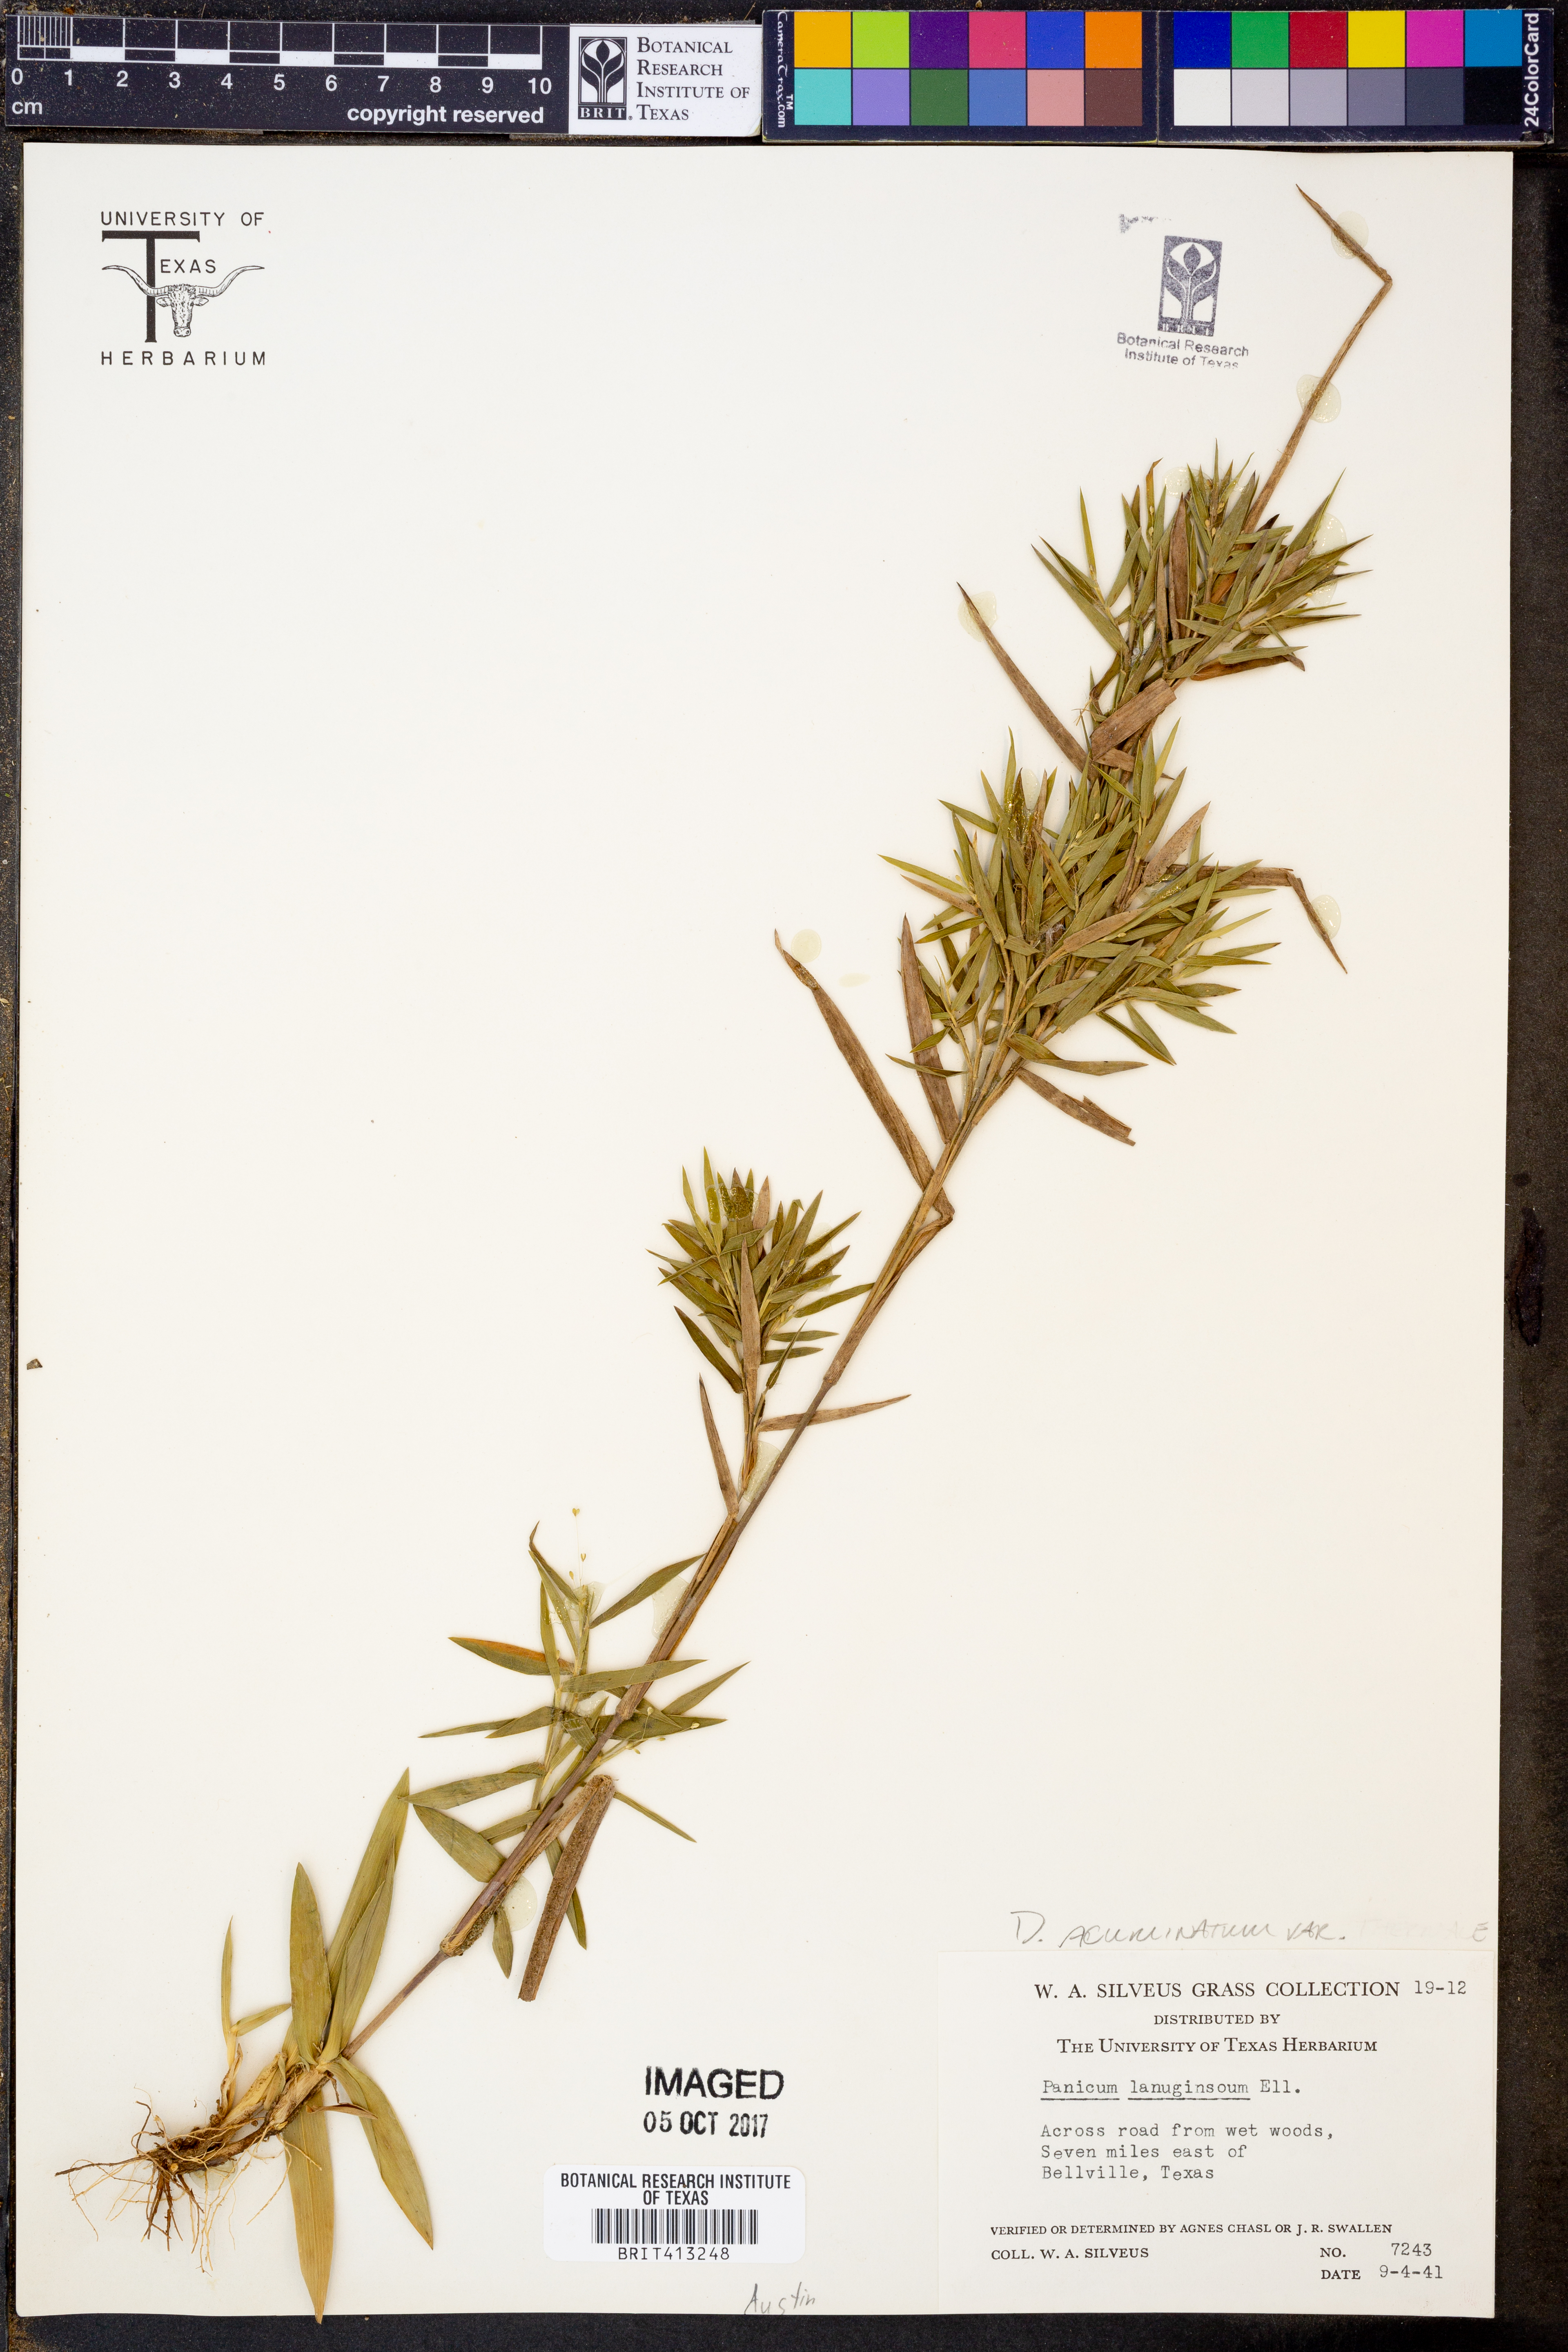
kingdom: Plantae
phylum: Tracheophyta
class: Liliopsida
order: Poales
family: Poaceae
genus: Dichanthelium
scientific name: Dichanthelium lanuginosum
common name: Woolly panicgrass
